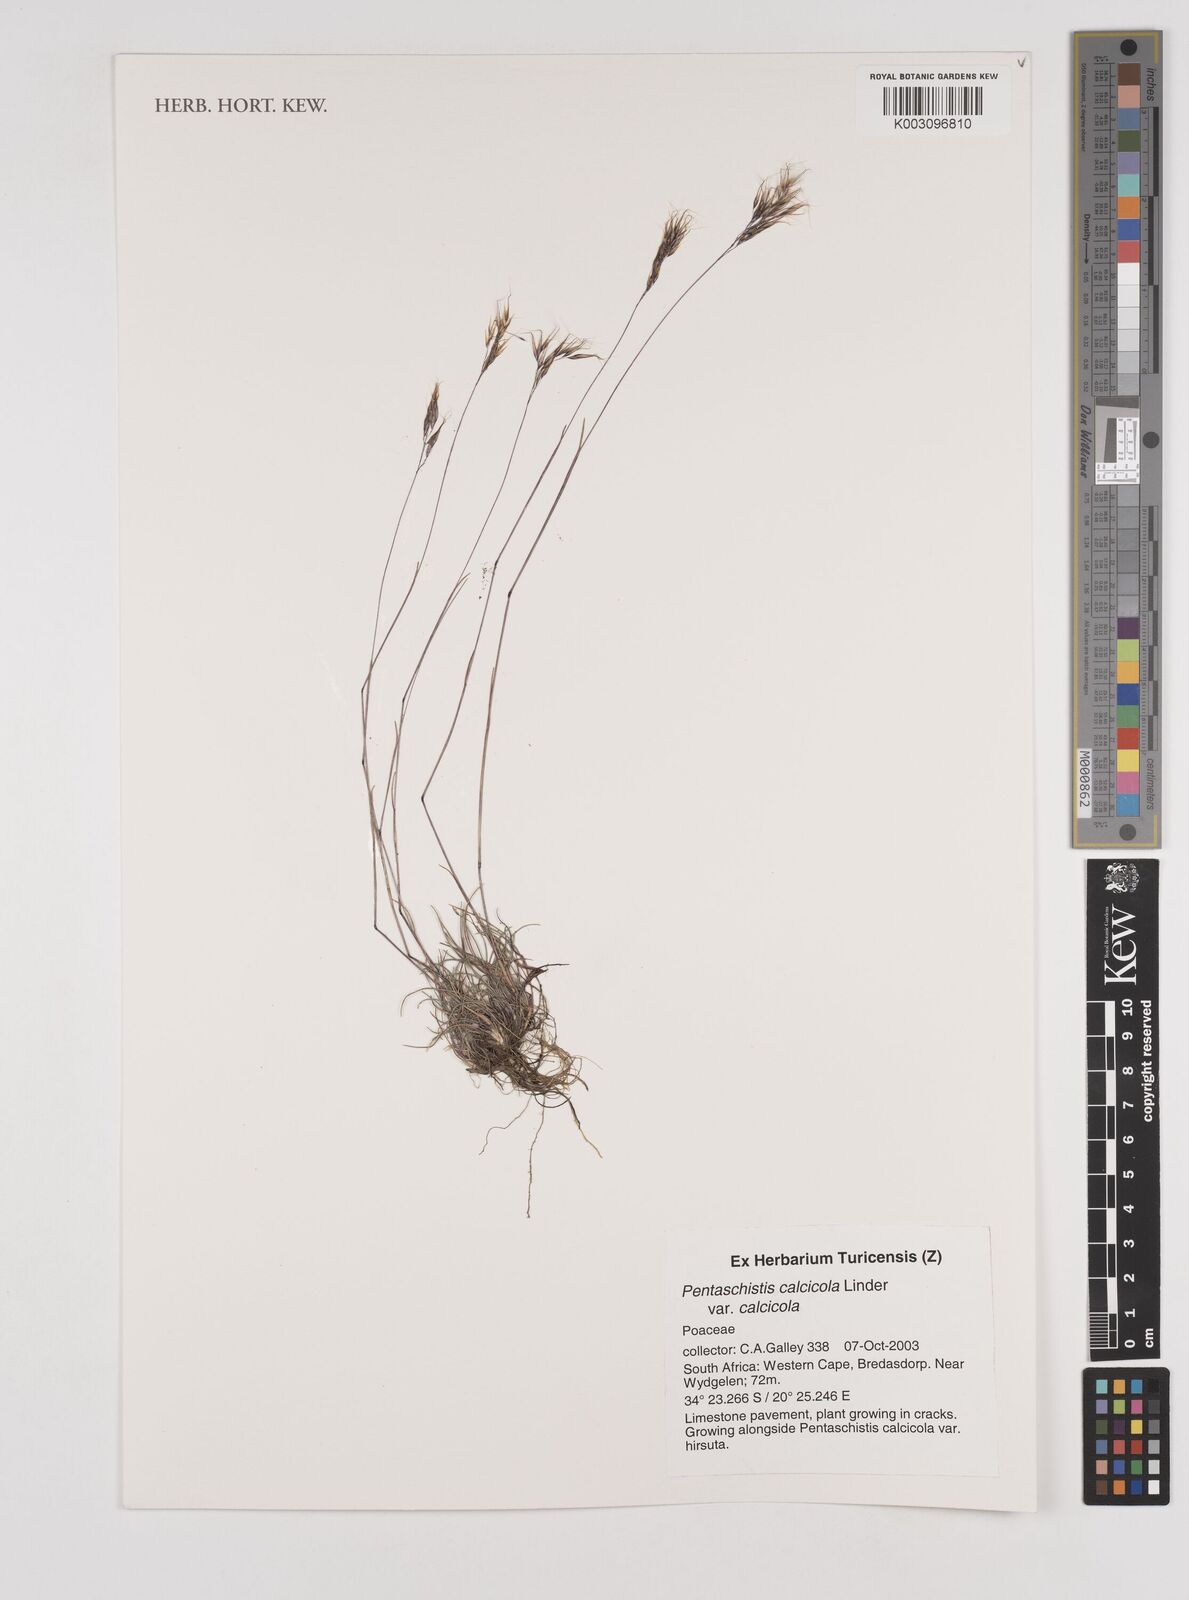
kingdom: Plantae
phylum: Tracheophyta
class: Liliopsida
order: Poales
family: Poaceae
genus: Pentameris
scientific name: Pentameris calcicola
